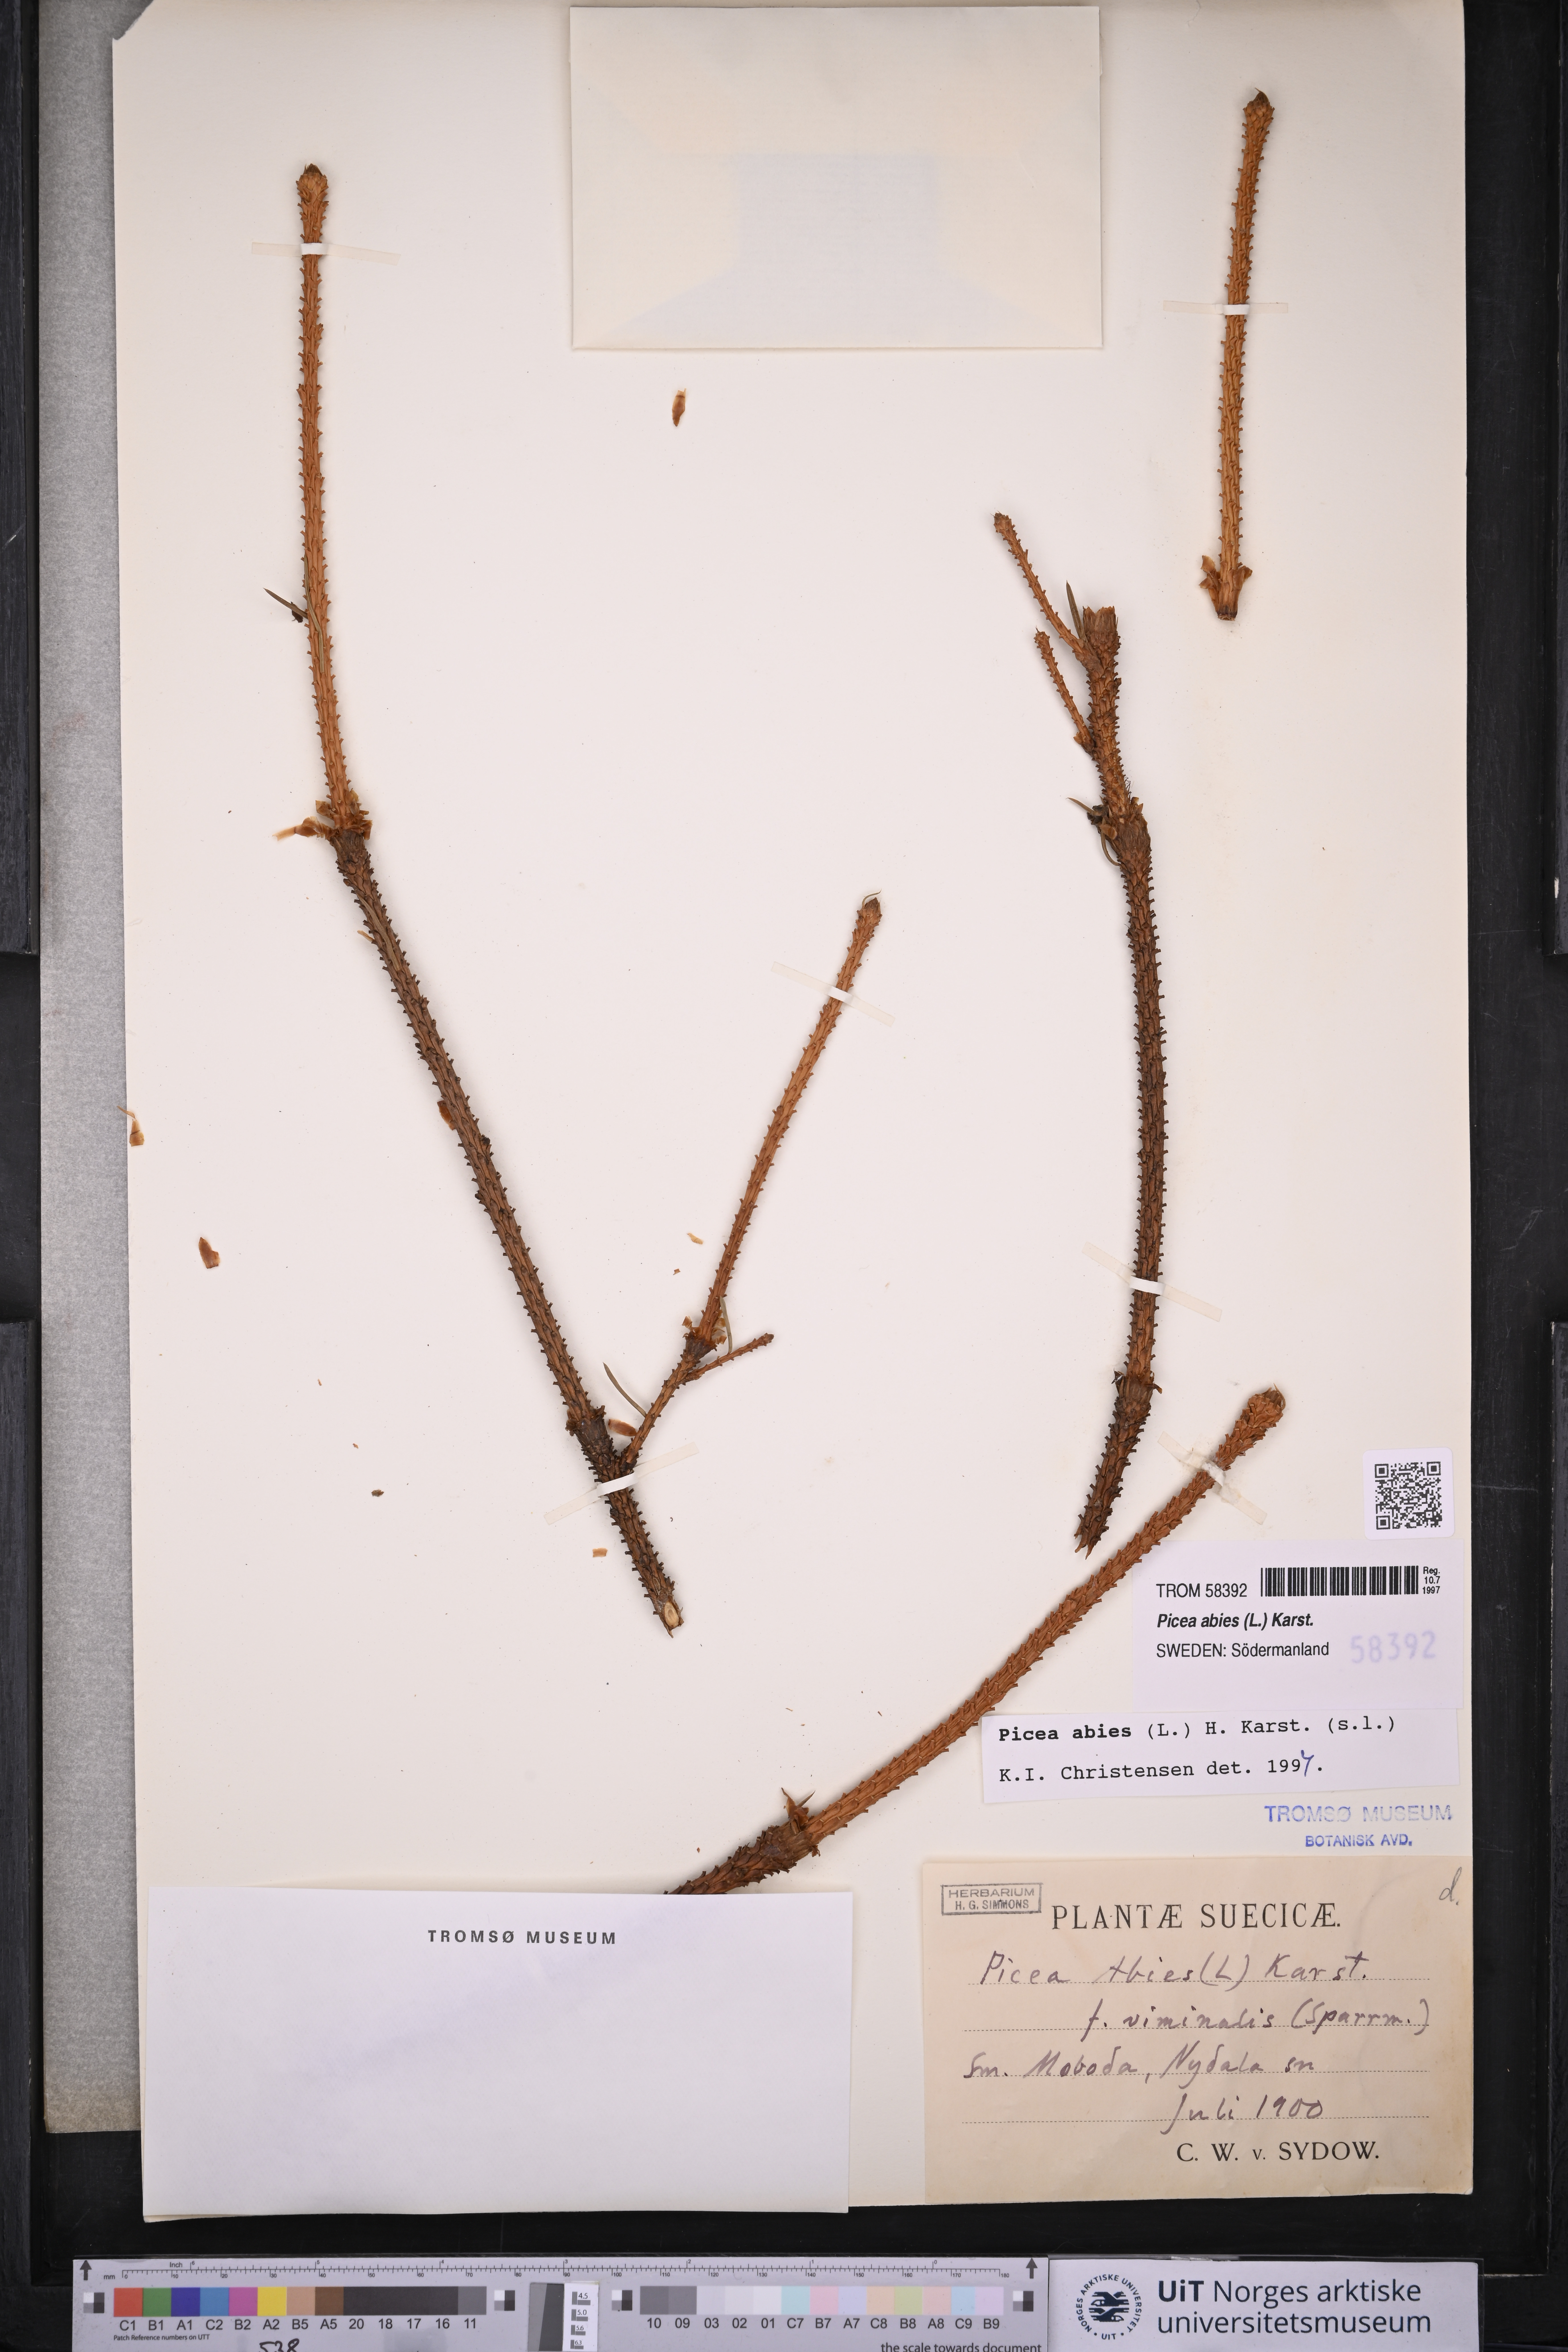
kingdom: Plantae
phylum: Tracheophyta
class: Pinopsida
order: Pinales
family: Pinaceae
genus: Picea
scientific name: Picea abies
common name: Norway spruce
